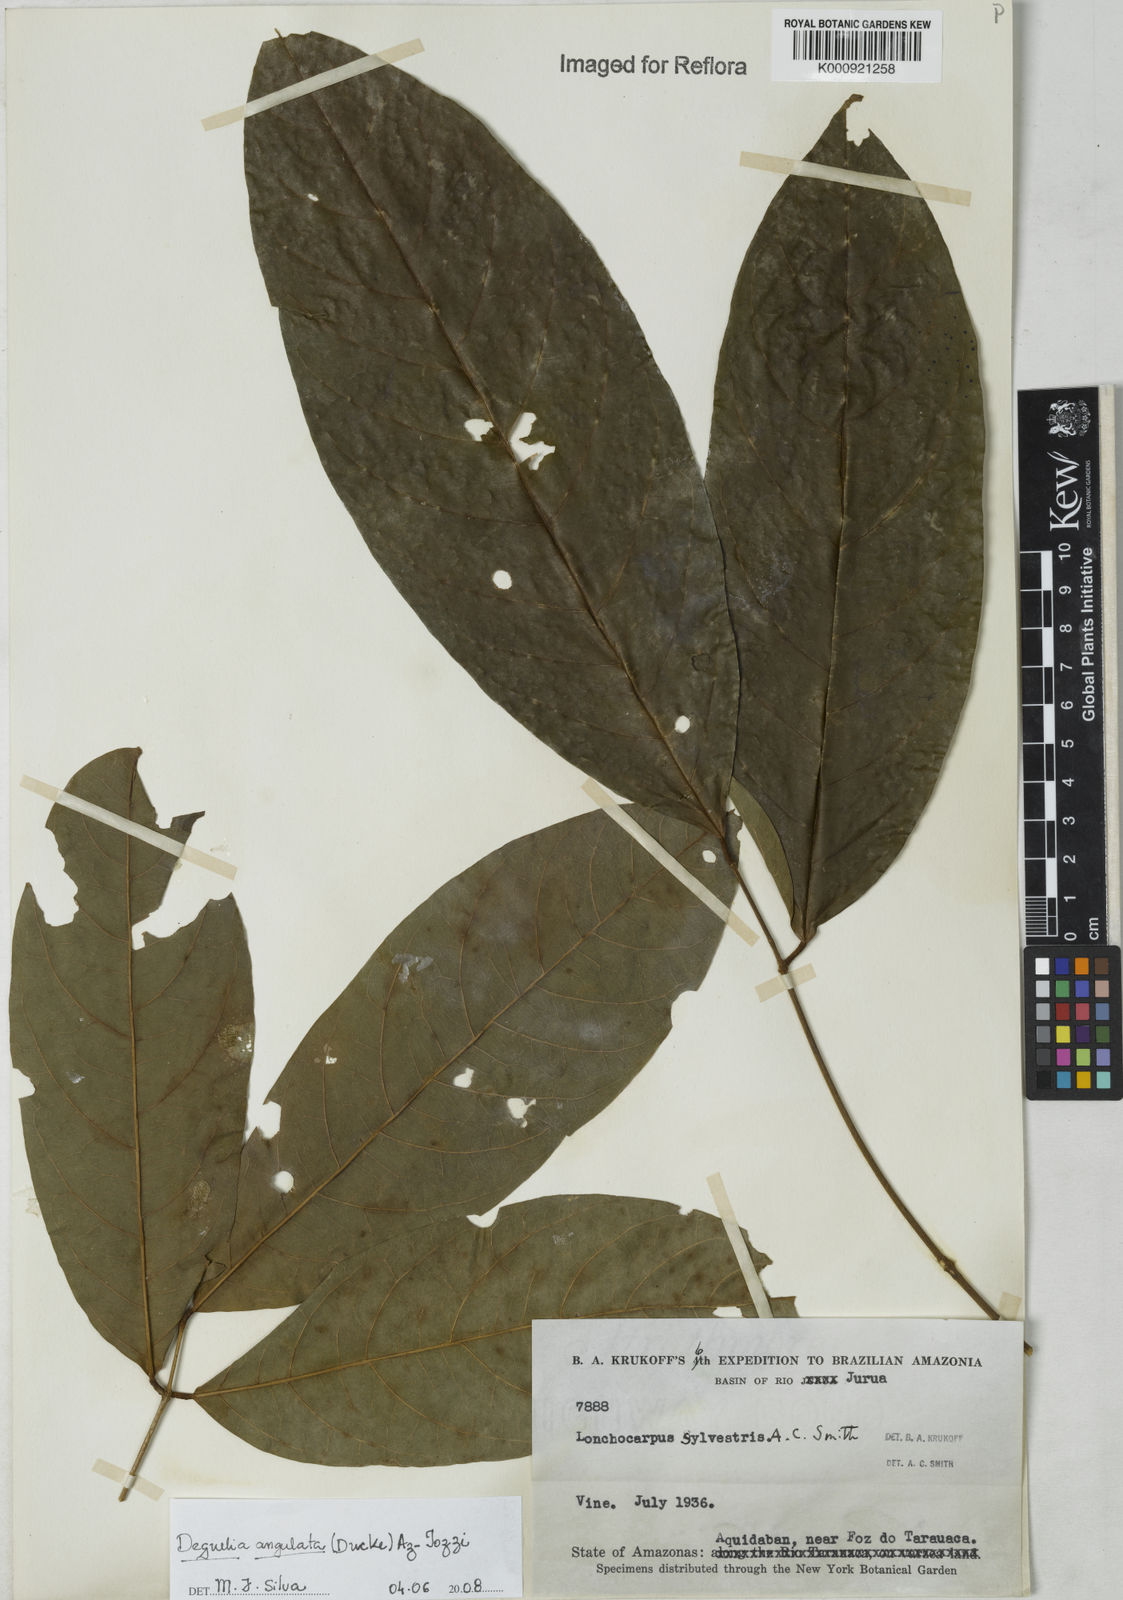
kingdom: Plantae
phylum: Tracheophyta
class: Magnoliopsida
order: Fabales
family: Fabaceae
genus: Deguelia
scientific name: Deguelia angulata
